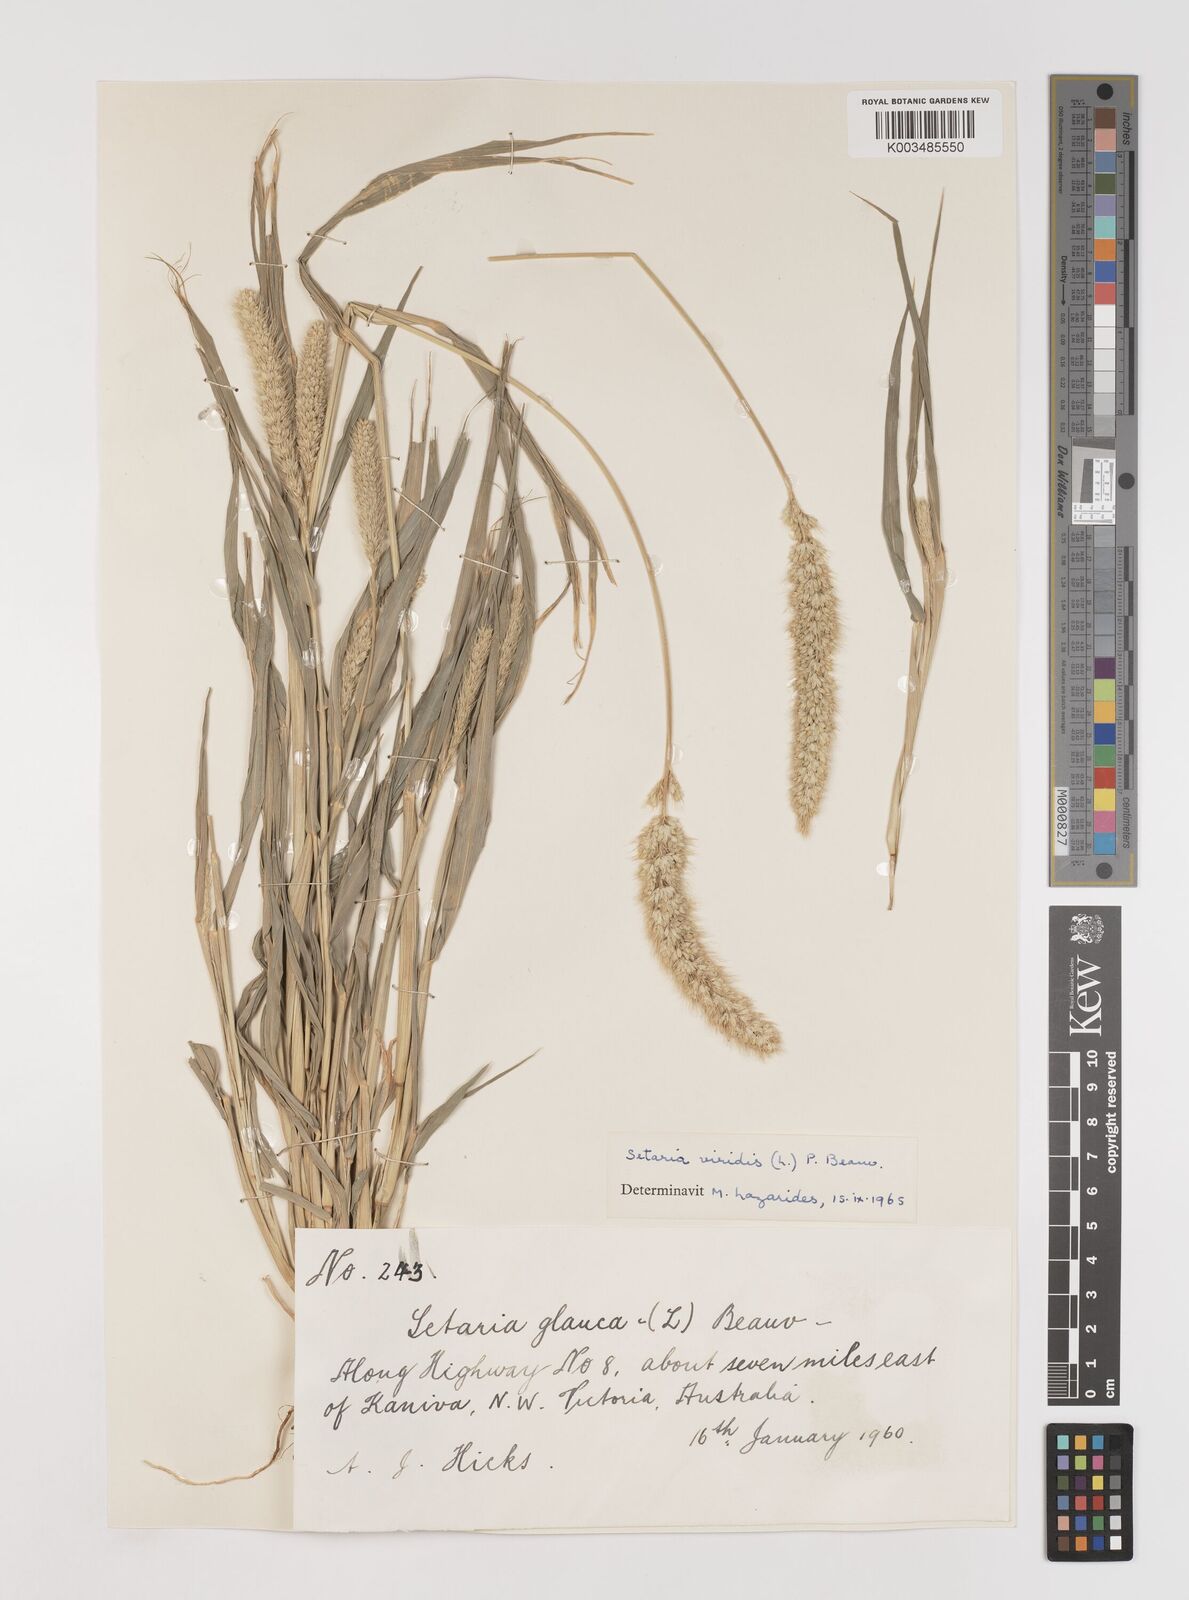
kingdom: Plantae
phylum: Tracheophyta
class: Liliopsida
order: Poales
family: Poaceae
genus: Setaria
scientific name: Setaria viridis
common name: Green bristlegrass
